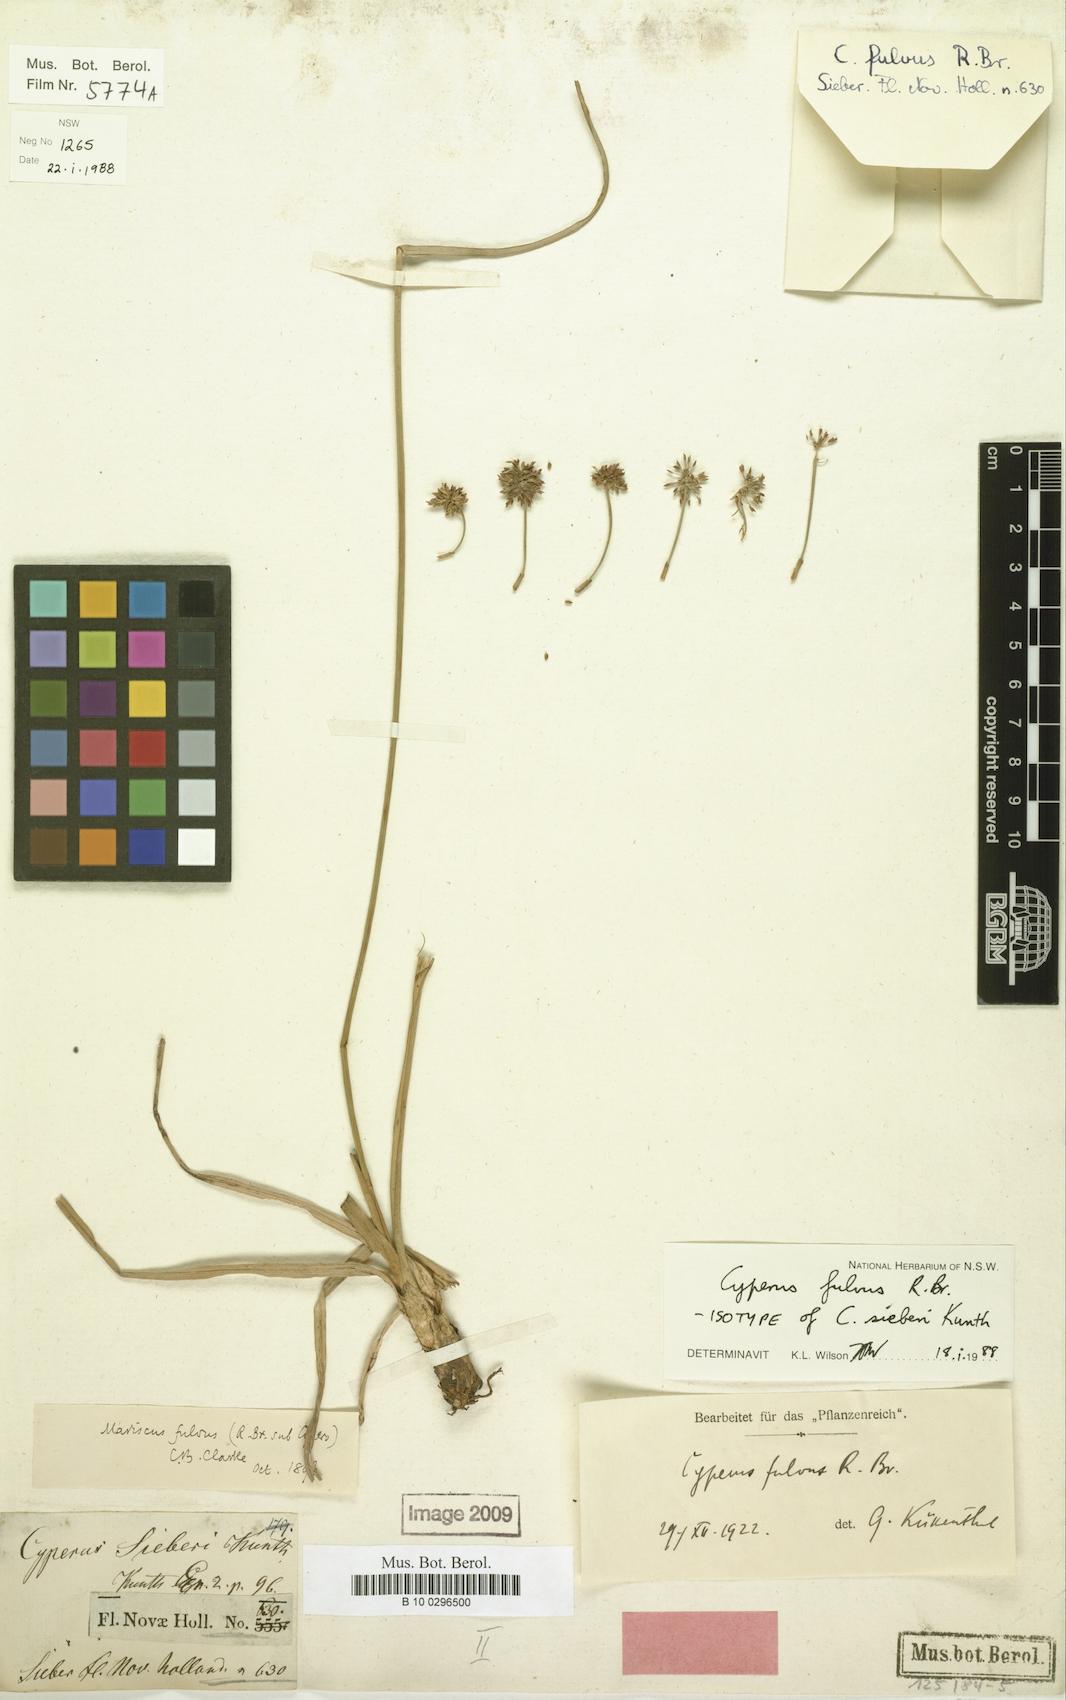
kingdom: Plantae
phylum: Tracheophyta
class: Liliopsida
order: Poales
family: Cyperaceae
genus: Cyperus
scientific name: Cyperus fulvus
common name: Sticky sedge
